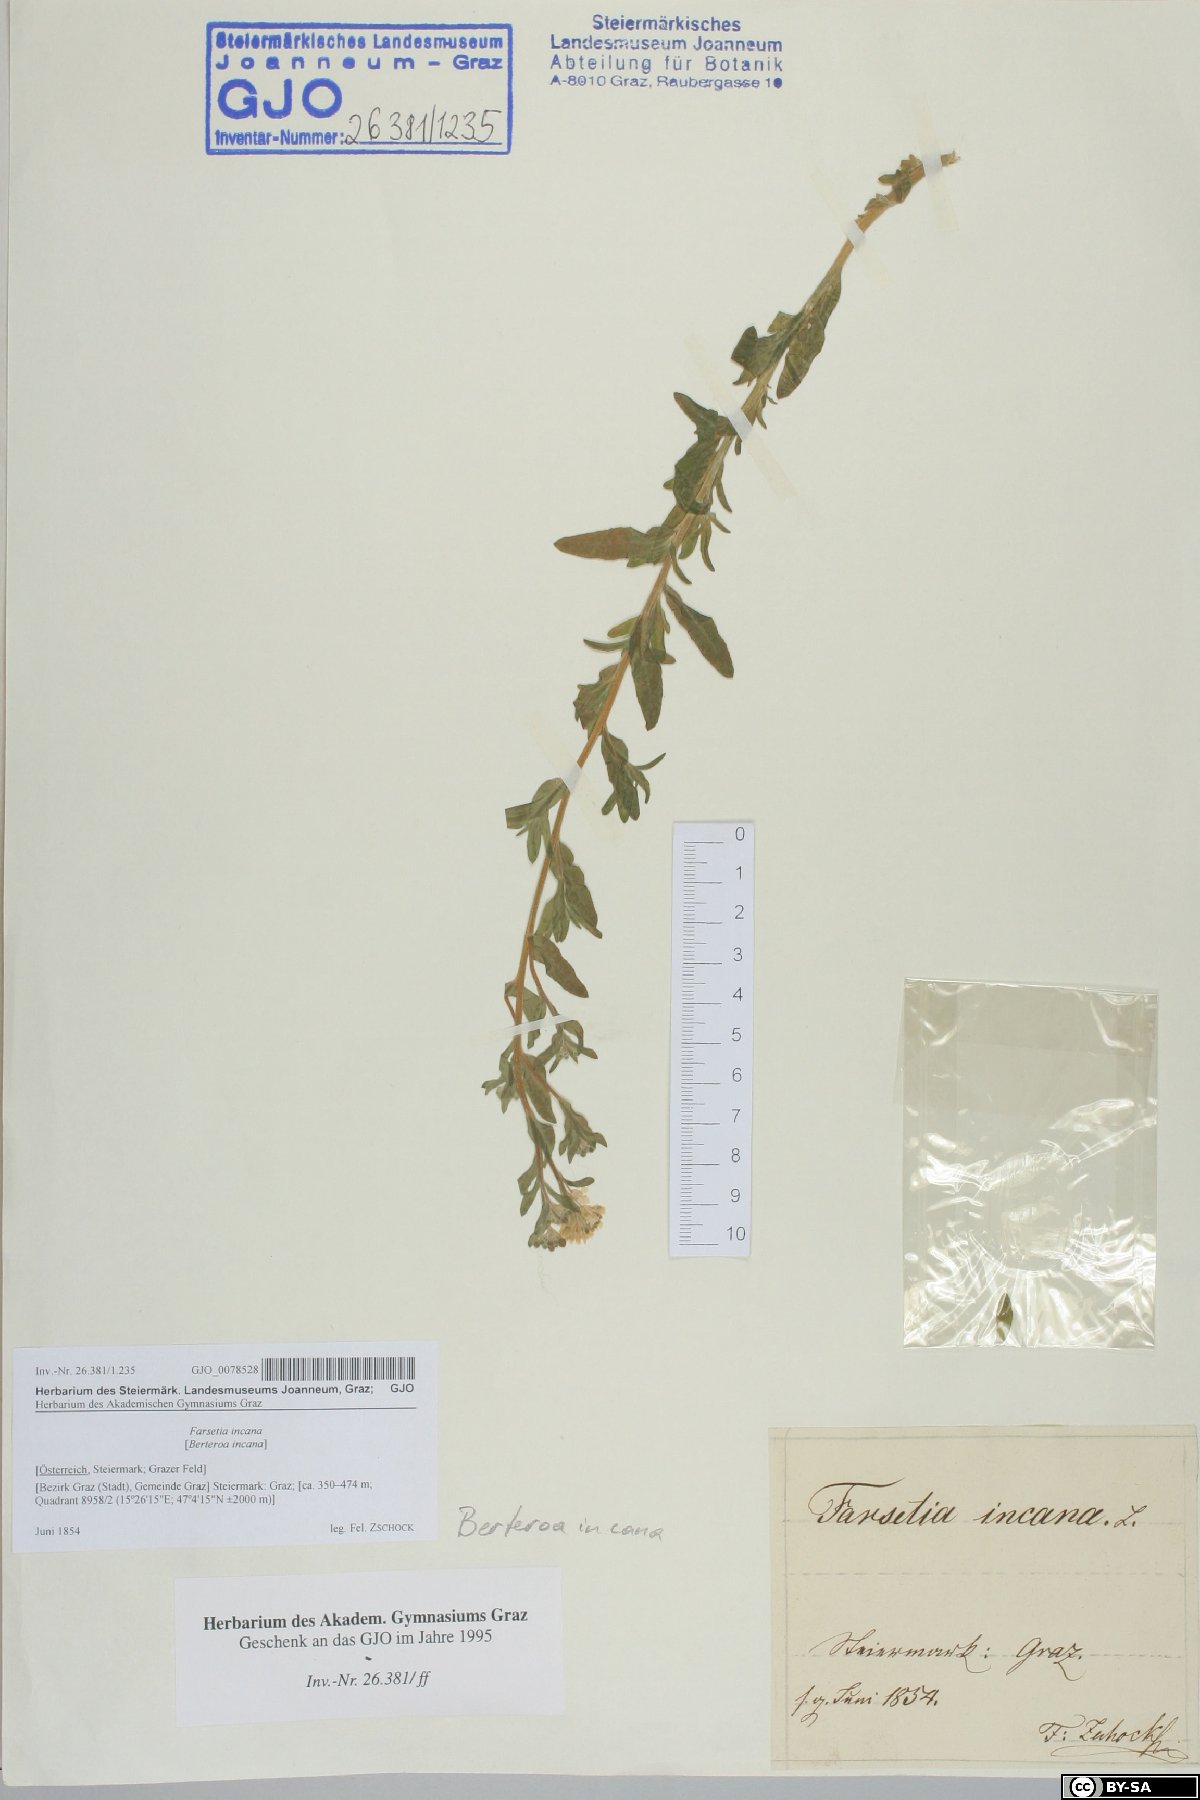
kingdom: Plantae
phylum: Tracheophyta
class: Magnoliopsida
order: Brassicales
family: Brassicaceae
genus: Berteroa
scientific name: Berteroa incana
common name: Hoary alison
